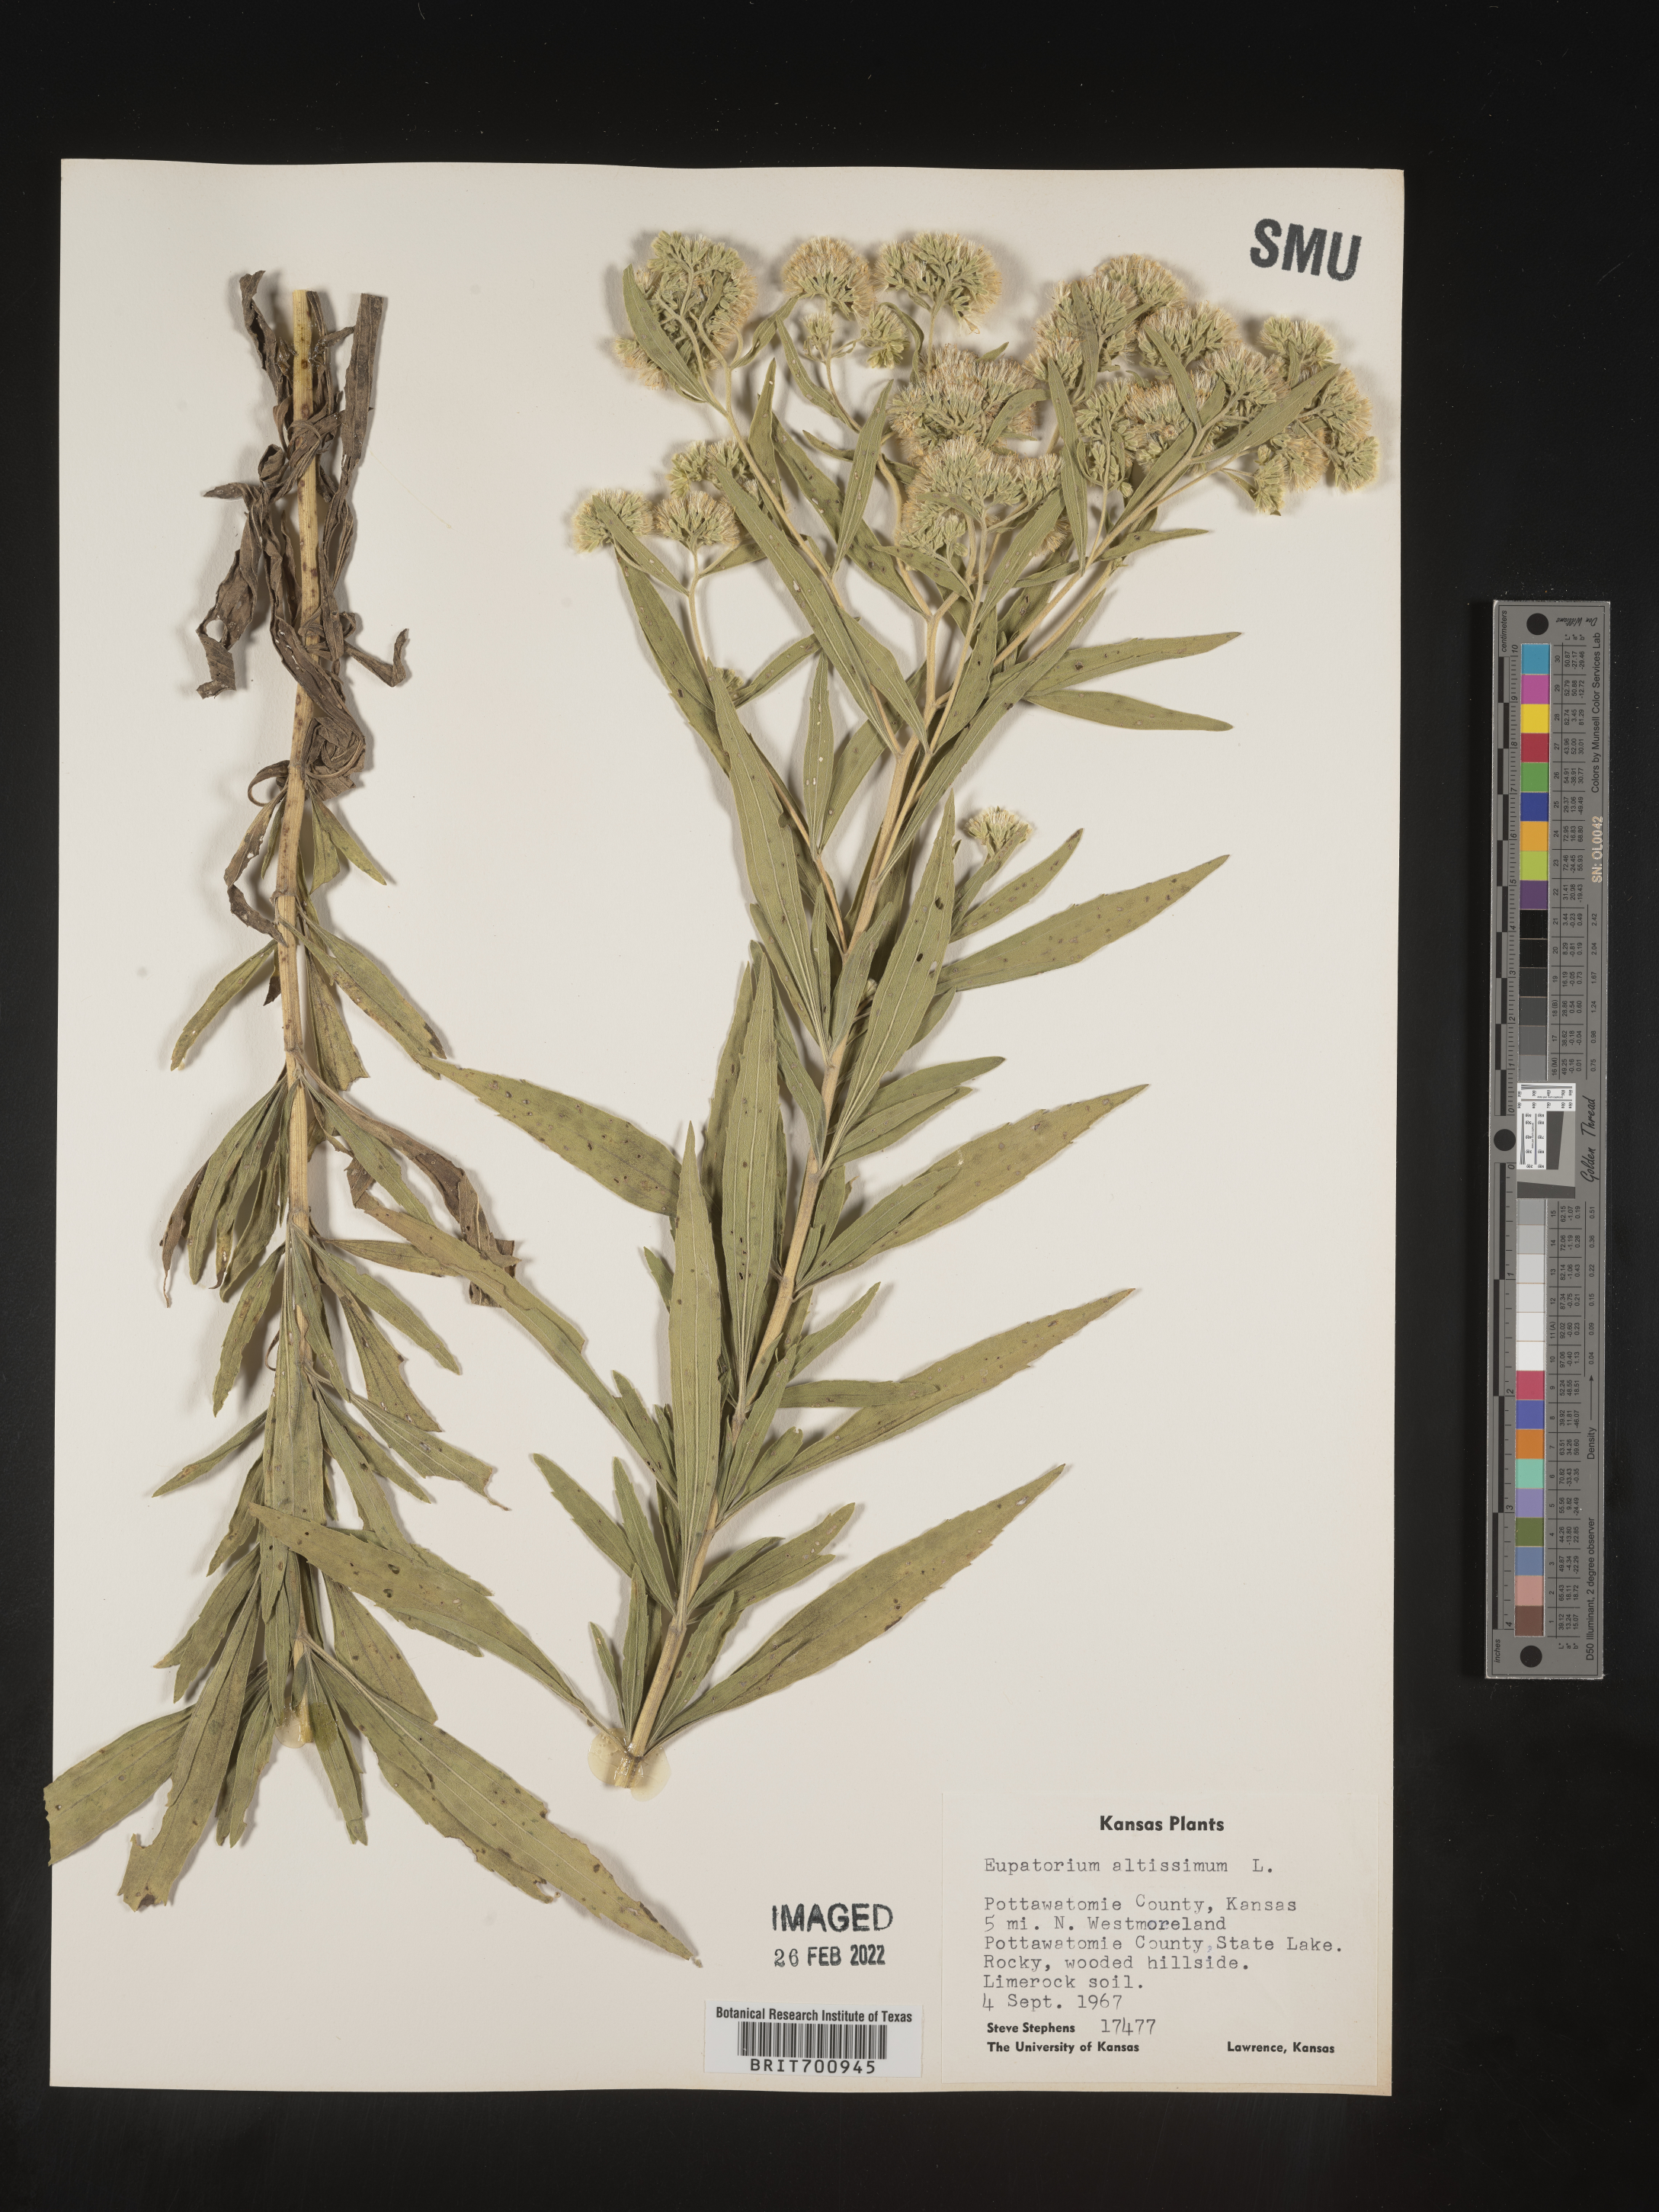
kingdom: Plantae
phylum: Tracheophyta
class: Magnoliopsida
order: Asterales
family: Asteraceae
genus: Eupatorium
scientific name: Eupatorium altissimum
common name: Tall thoroughwort
